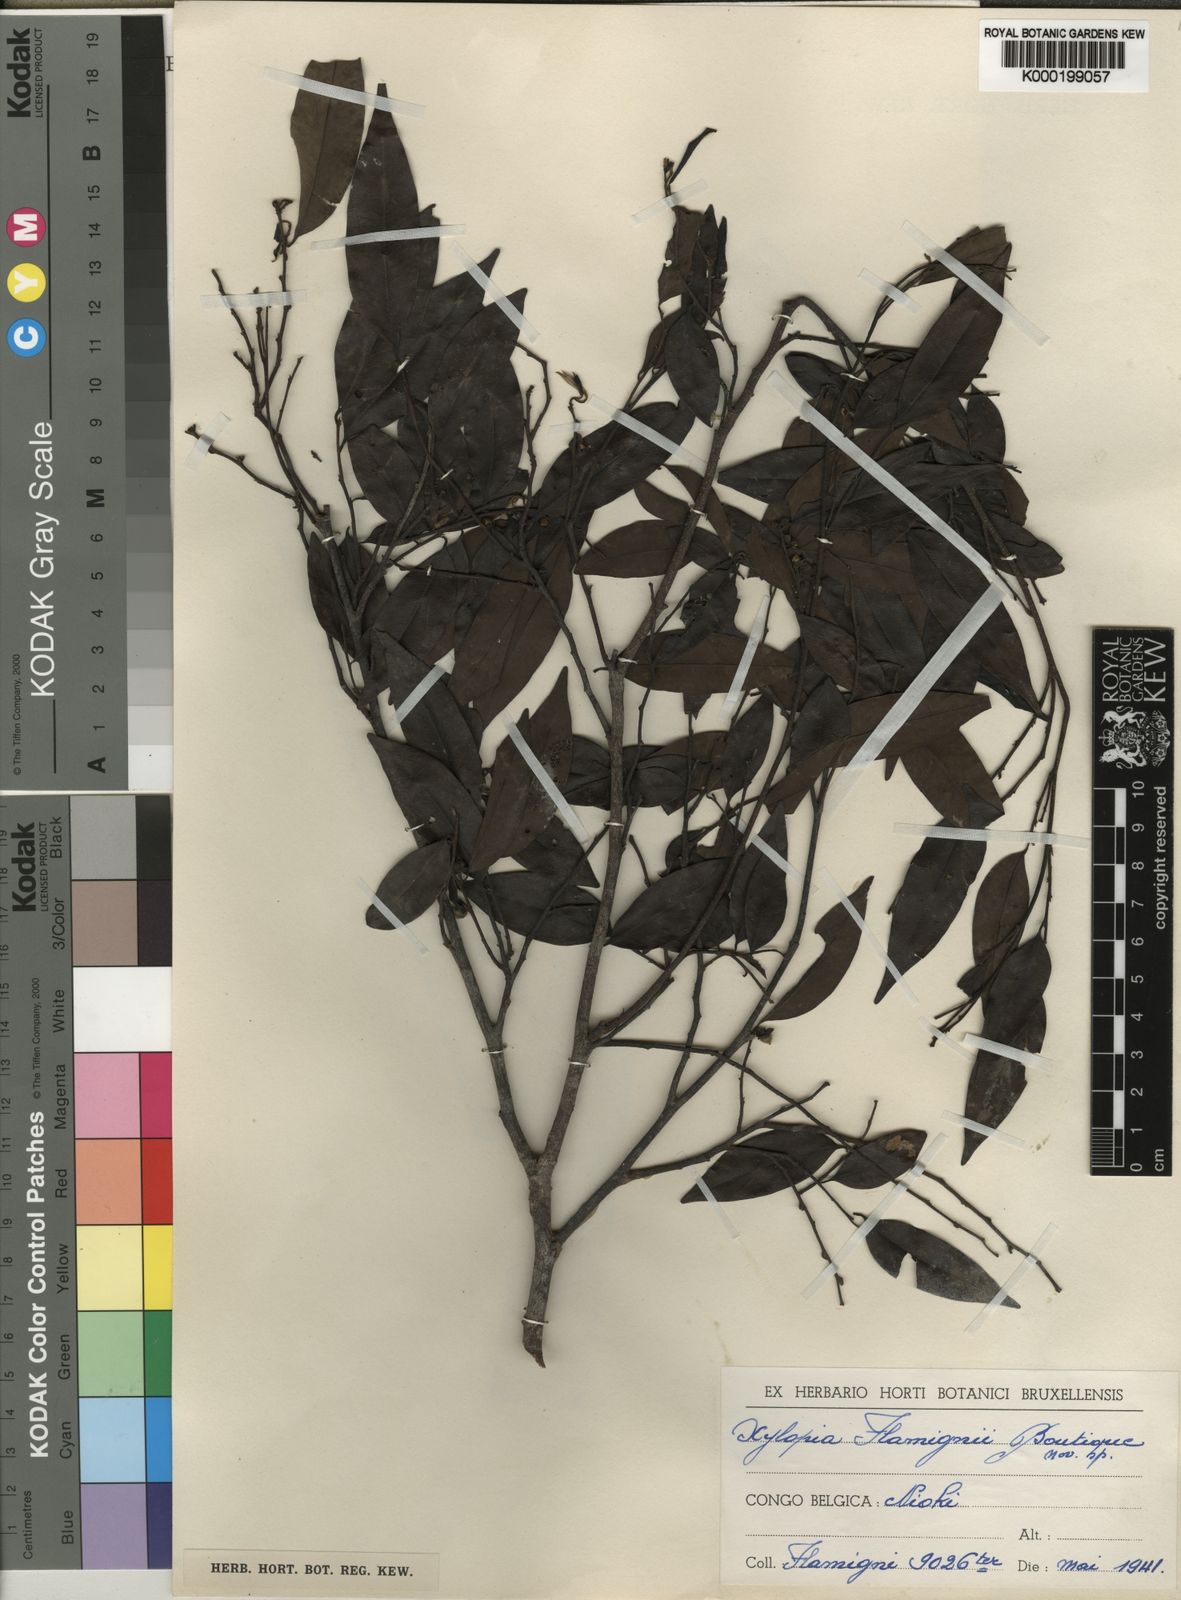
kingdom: Plantae
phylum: Tracheophyta
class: Magnoliopsida
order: Magnoliales
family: Annonaceae
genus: Xylopia
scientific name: Xylopia flamignii
